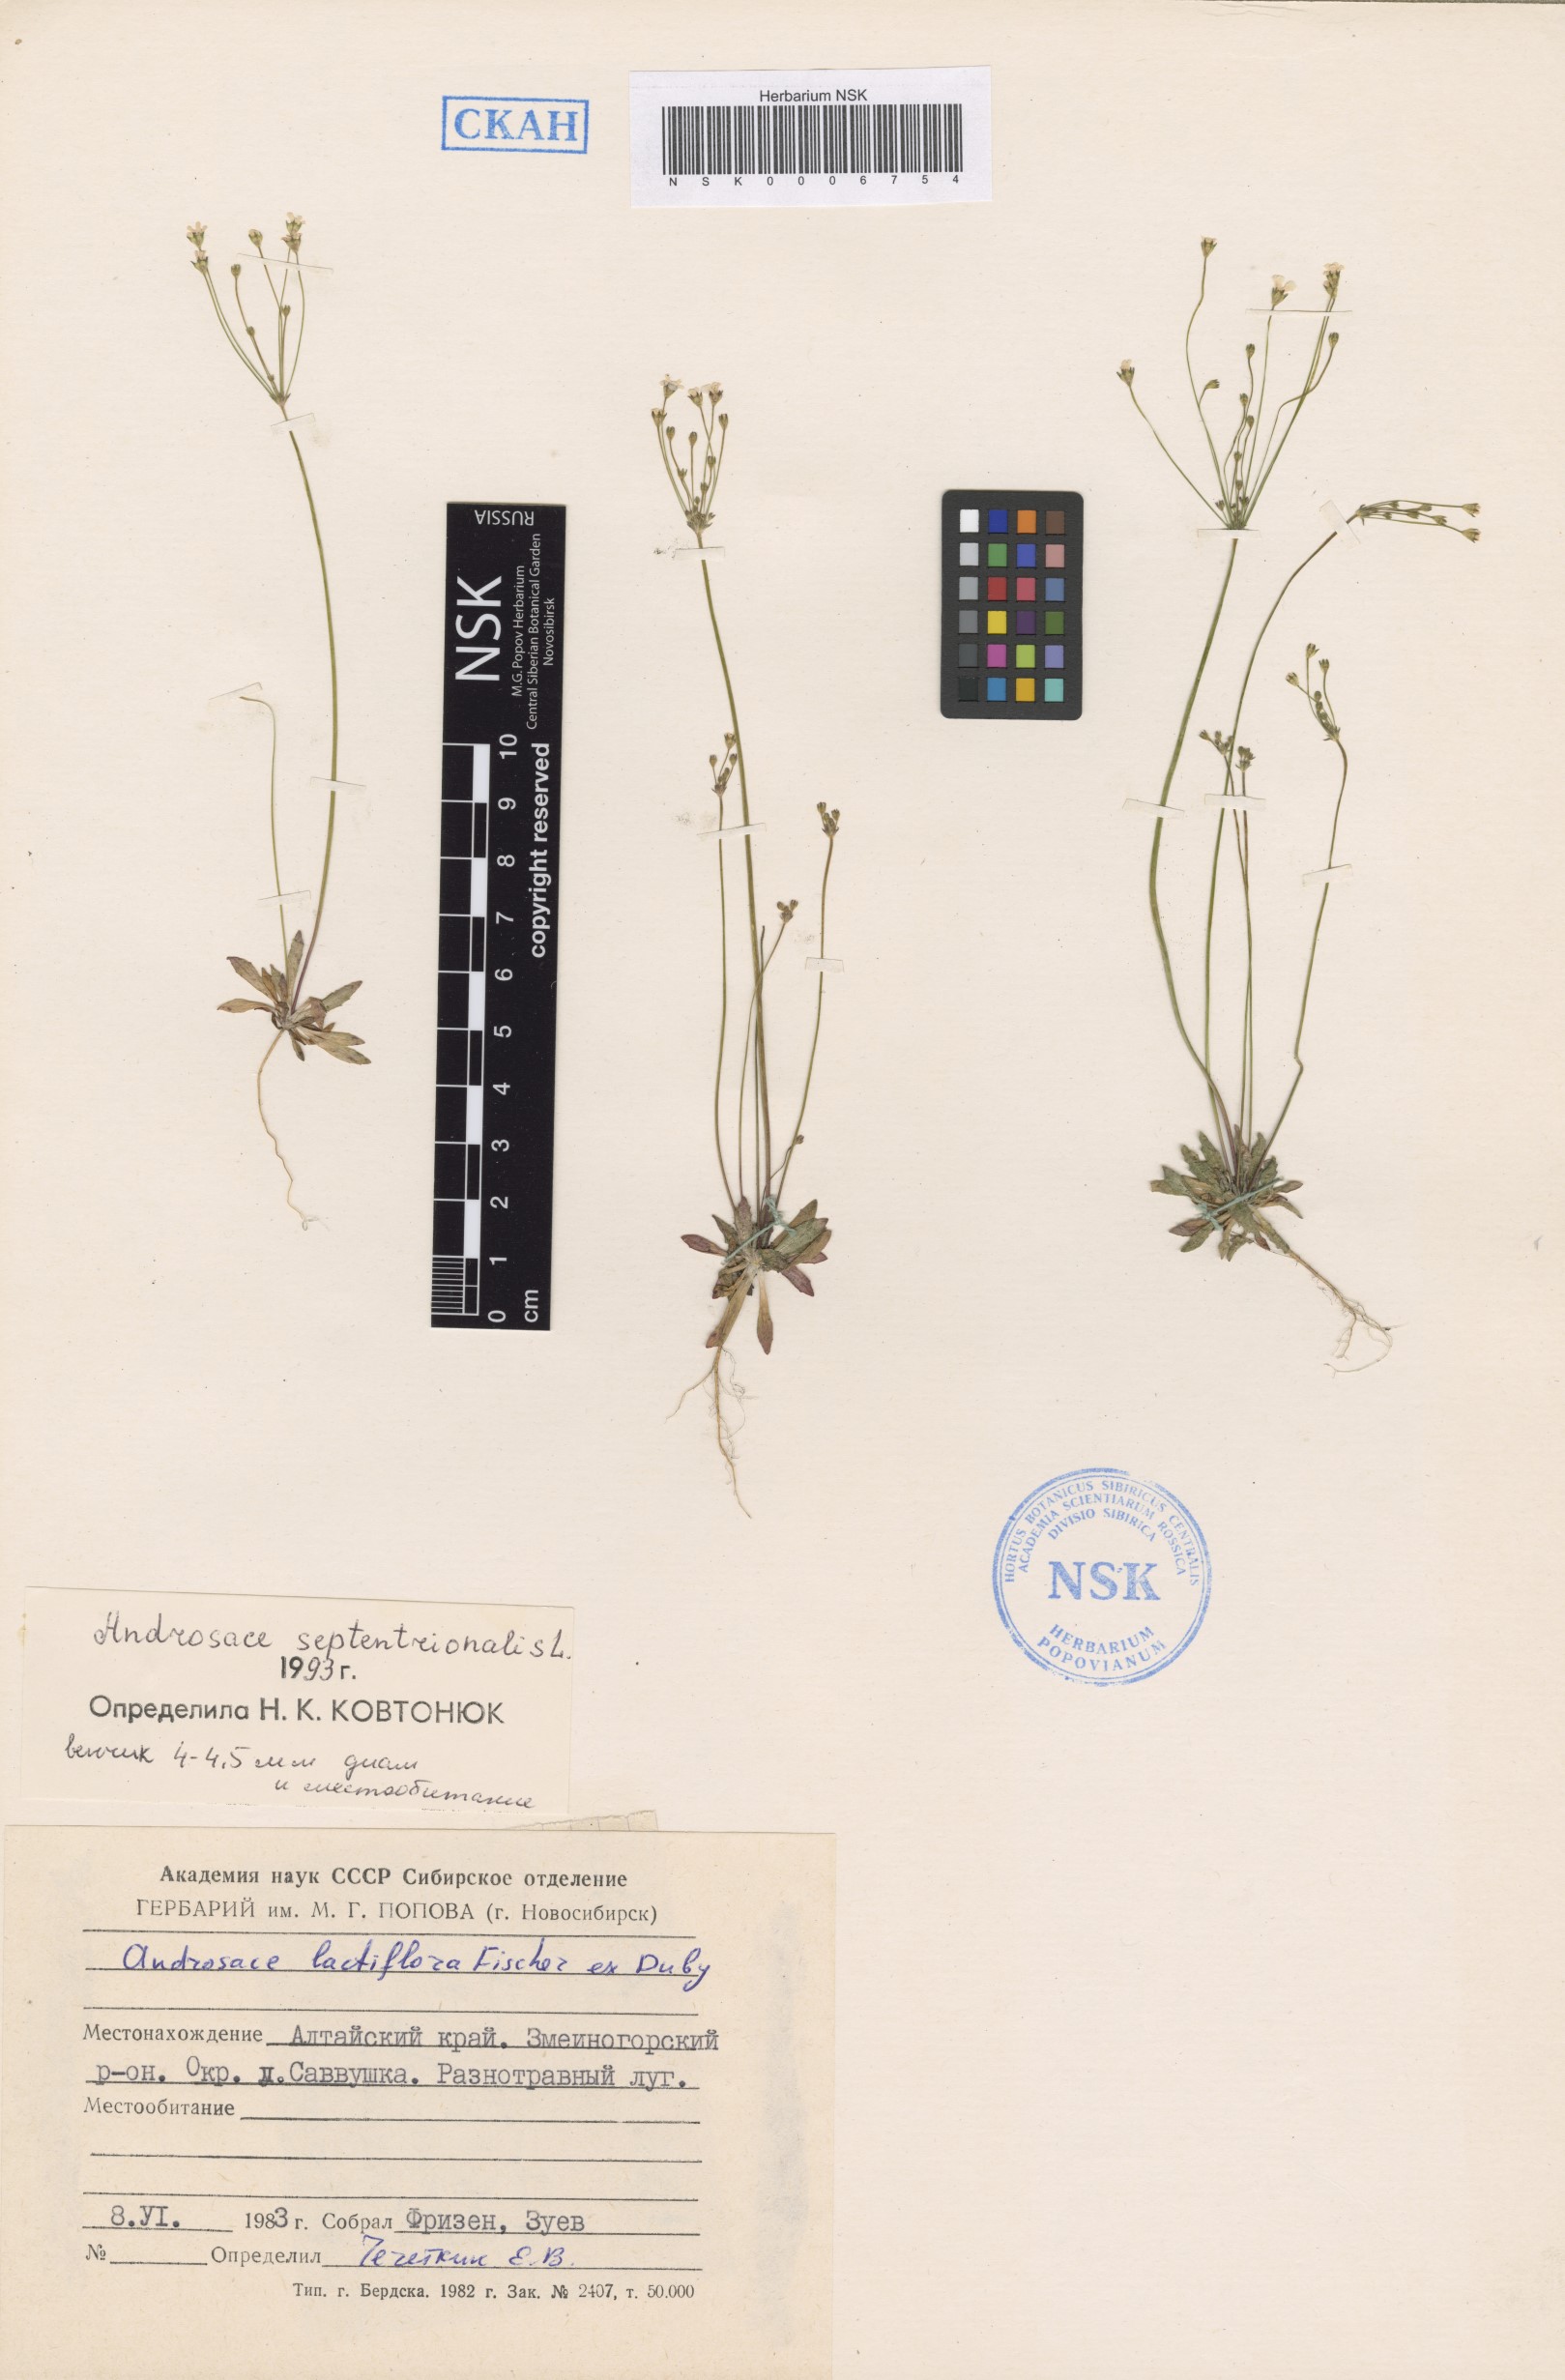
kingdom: Plantae
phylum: Tracheophyta
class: Magnoliopsida
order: Ericales
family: Primulaceae
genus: Androsace
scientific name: Androsace septentrionalis
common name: Hairy northern fairy-candelabra
